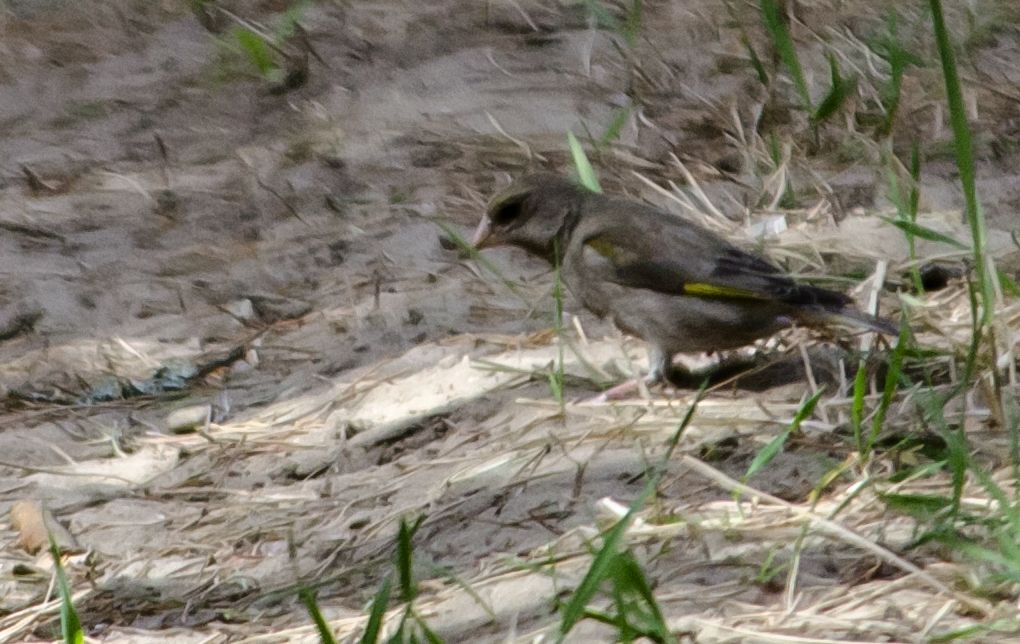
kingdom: Plantae
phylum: Tracheophyta
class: Liliopsida
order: Poales
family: Poaceae
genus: Chloris
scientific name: Chloris chloris
